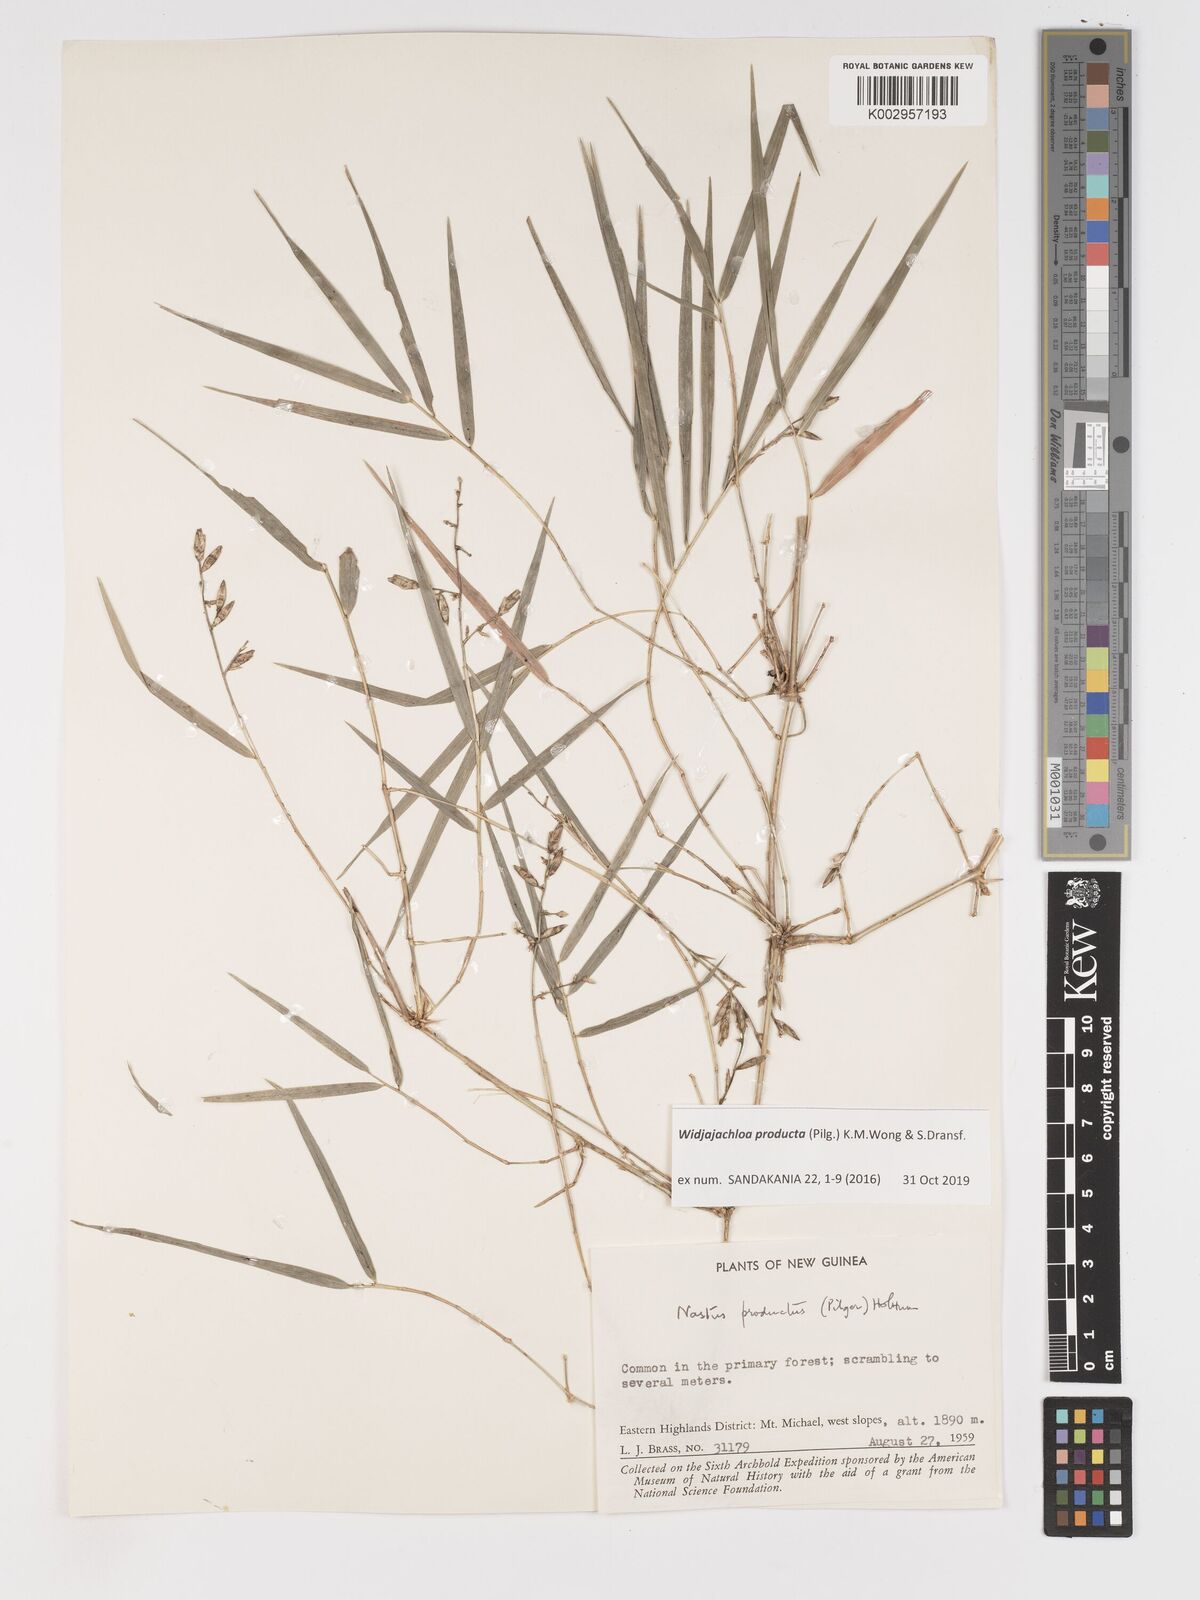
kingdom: Plantae
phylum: Tracheophyta
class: Liliopsida
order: Poales
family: Poaceae
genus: Widjajachloa
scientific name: Widjajachloa producta
